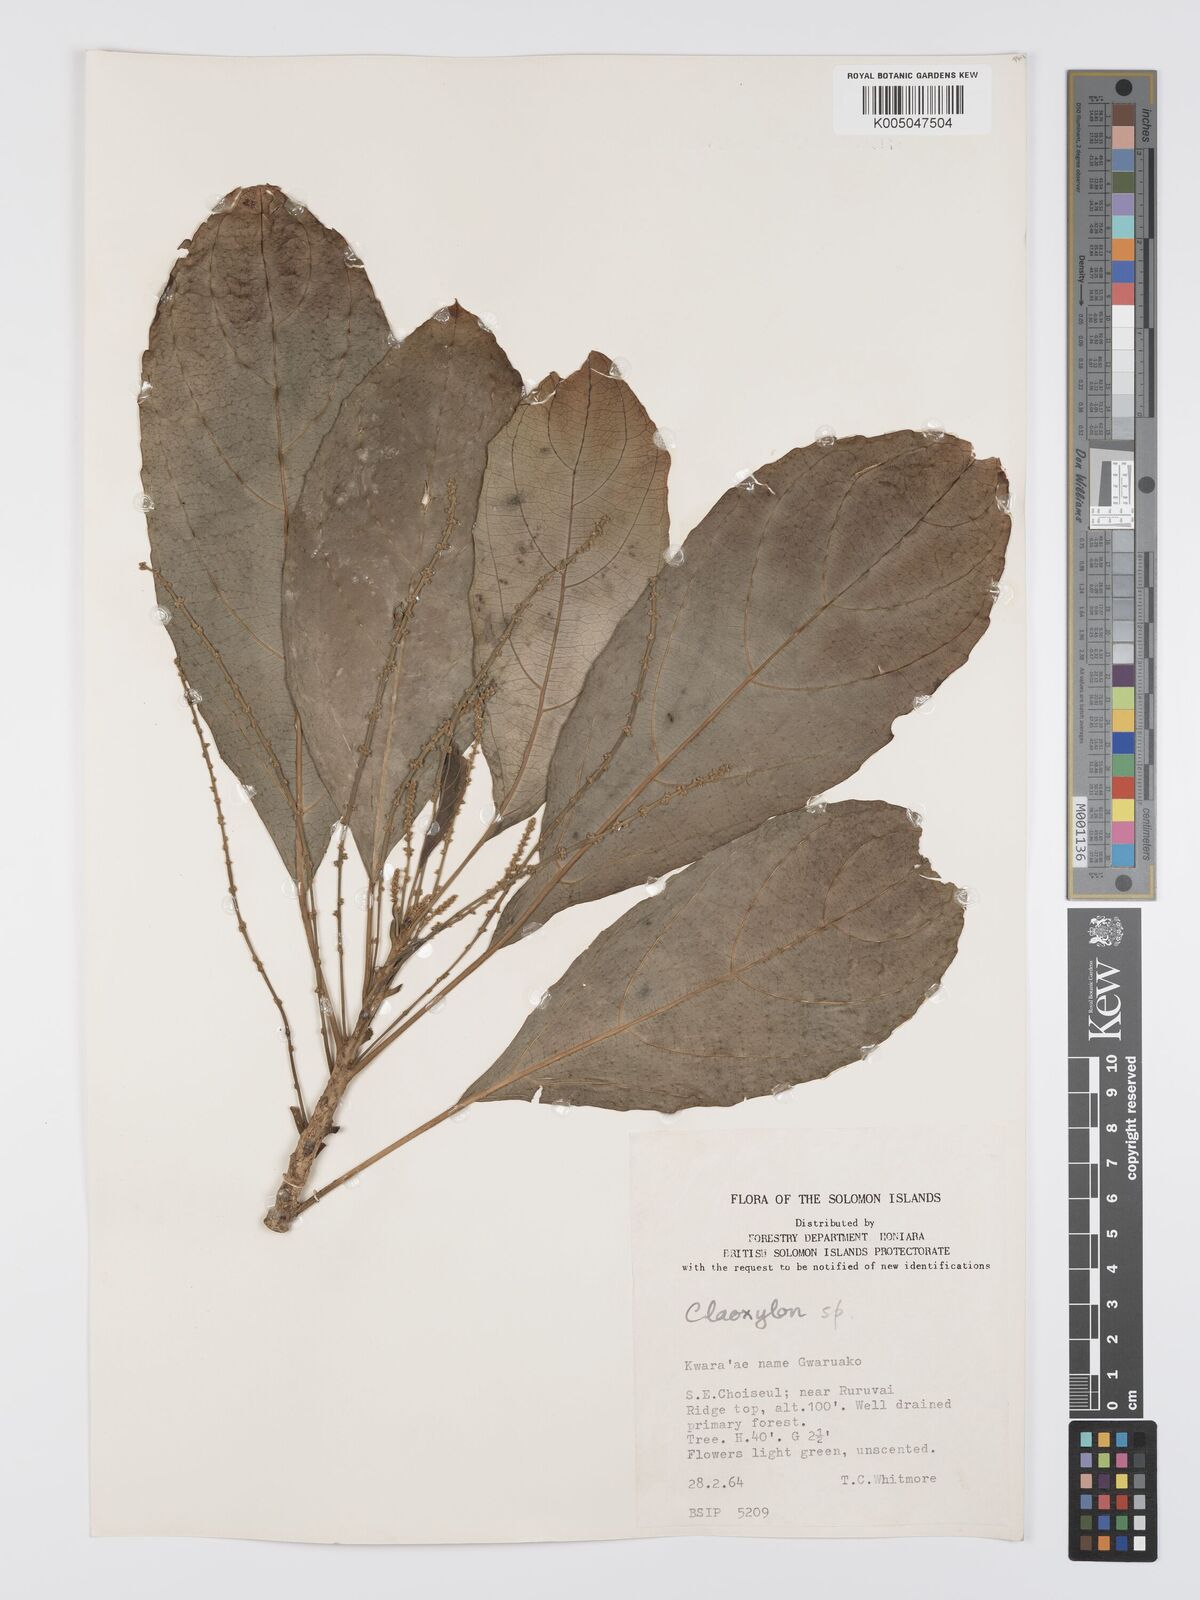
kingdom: Plantae
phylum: Tracheophyta
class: Magnoliopsida
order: Malpighiales
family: Euphorbiaceae
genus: Claoxylon
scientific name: Claoxylon carolinianum
